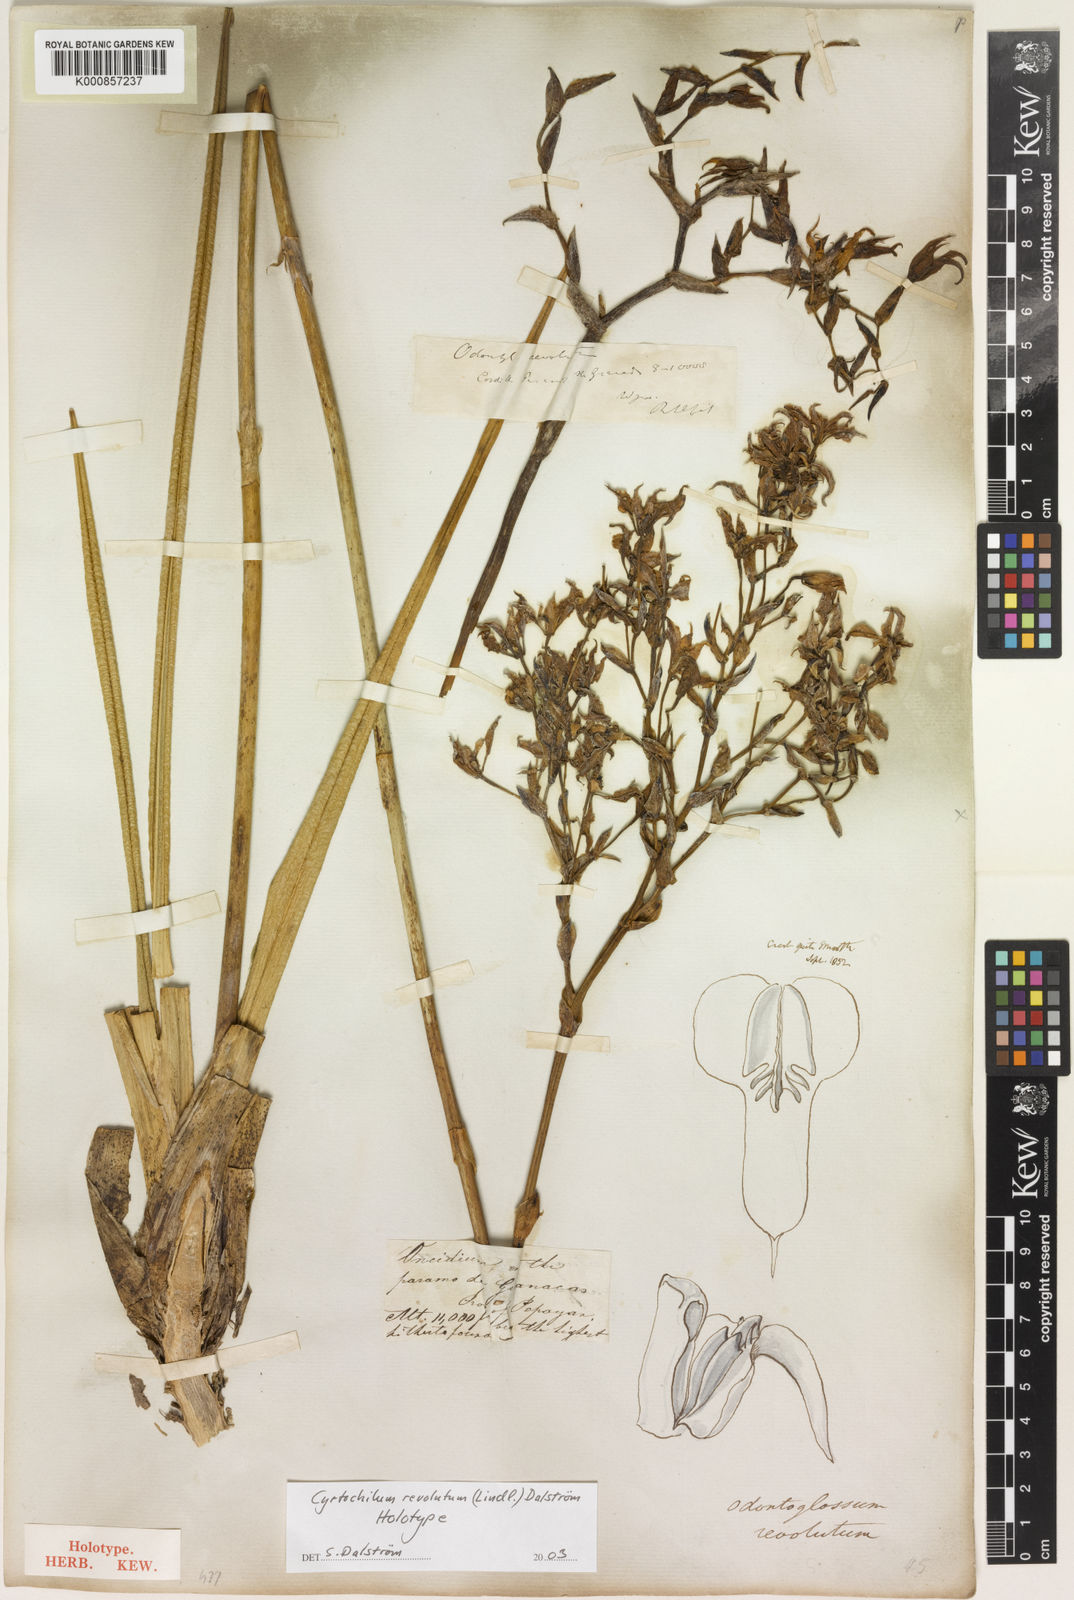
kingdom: Plantae
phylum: Tracheophyta
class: Liliopsida
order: Asparagales
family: Orchidaceae
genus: Cyrtochilum
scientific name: Cyrtochilum
